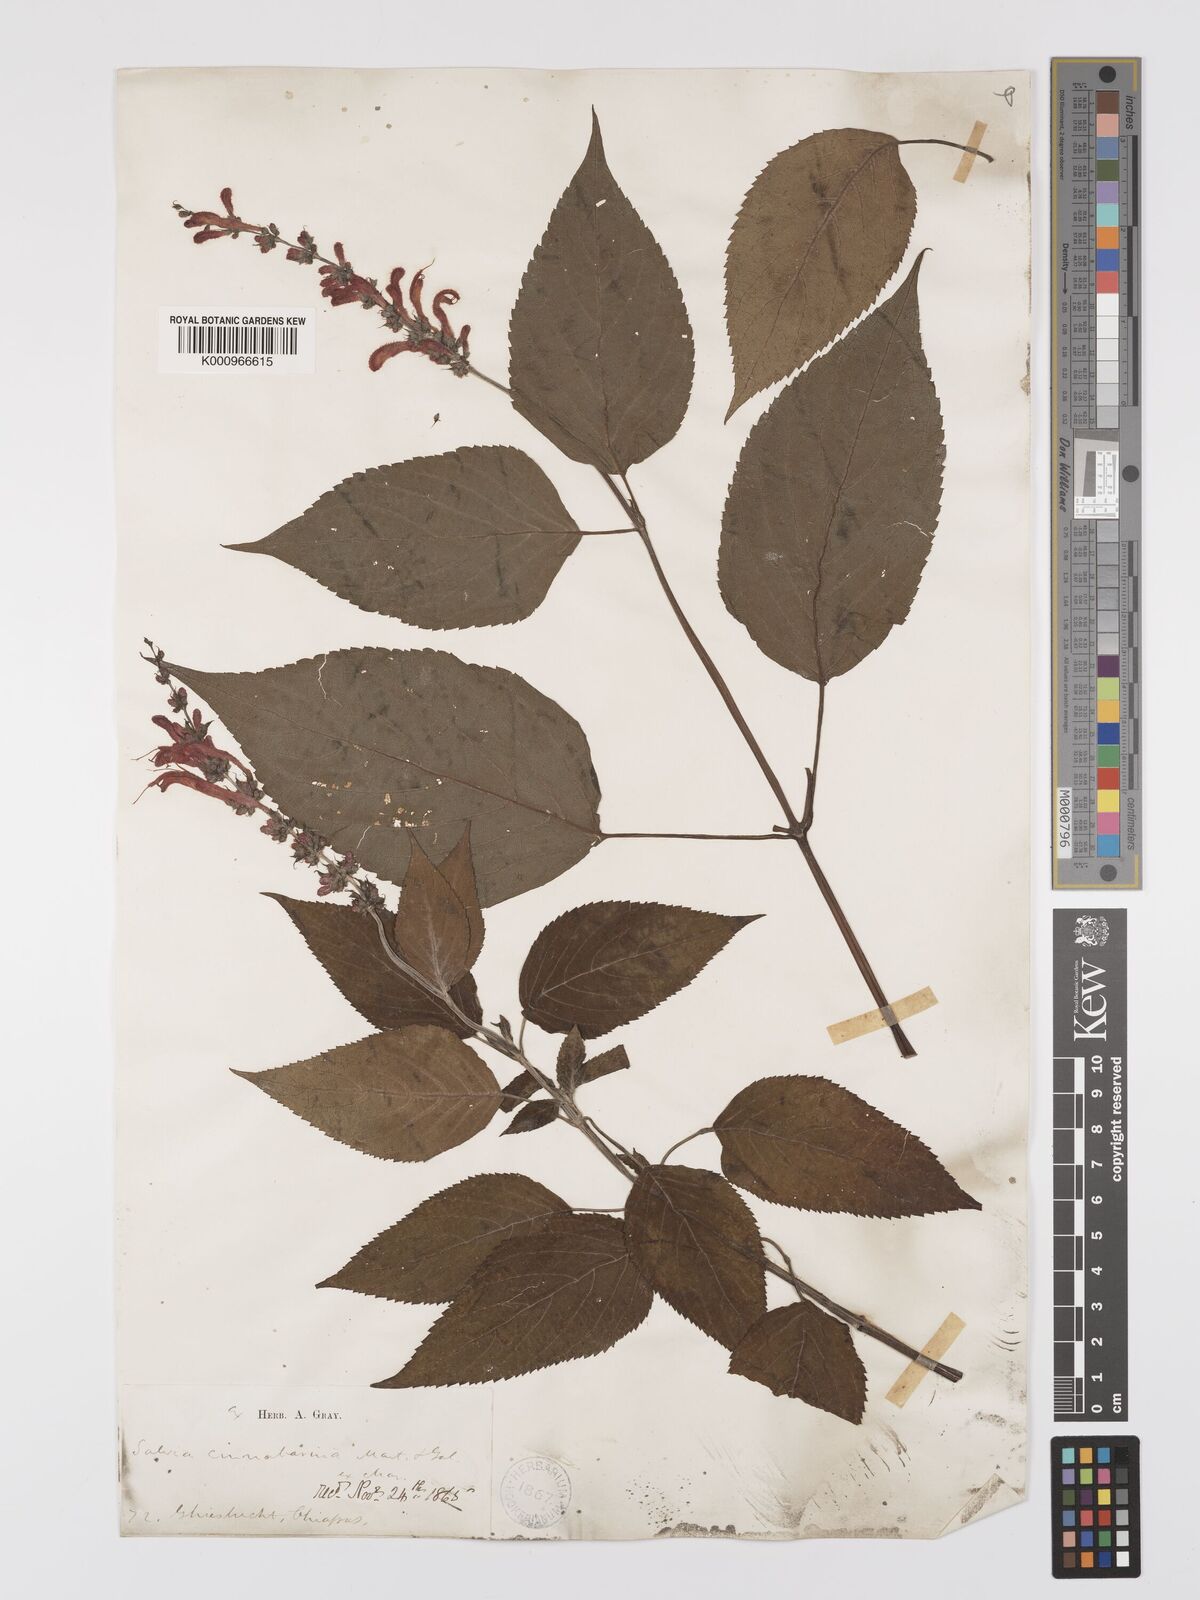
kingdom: Plantae
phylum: Tracheophyta
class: Magnoliopsida
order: Lamiales
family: Lamiaceae
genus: Salvia
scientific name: Salvia cinnabarina
